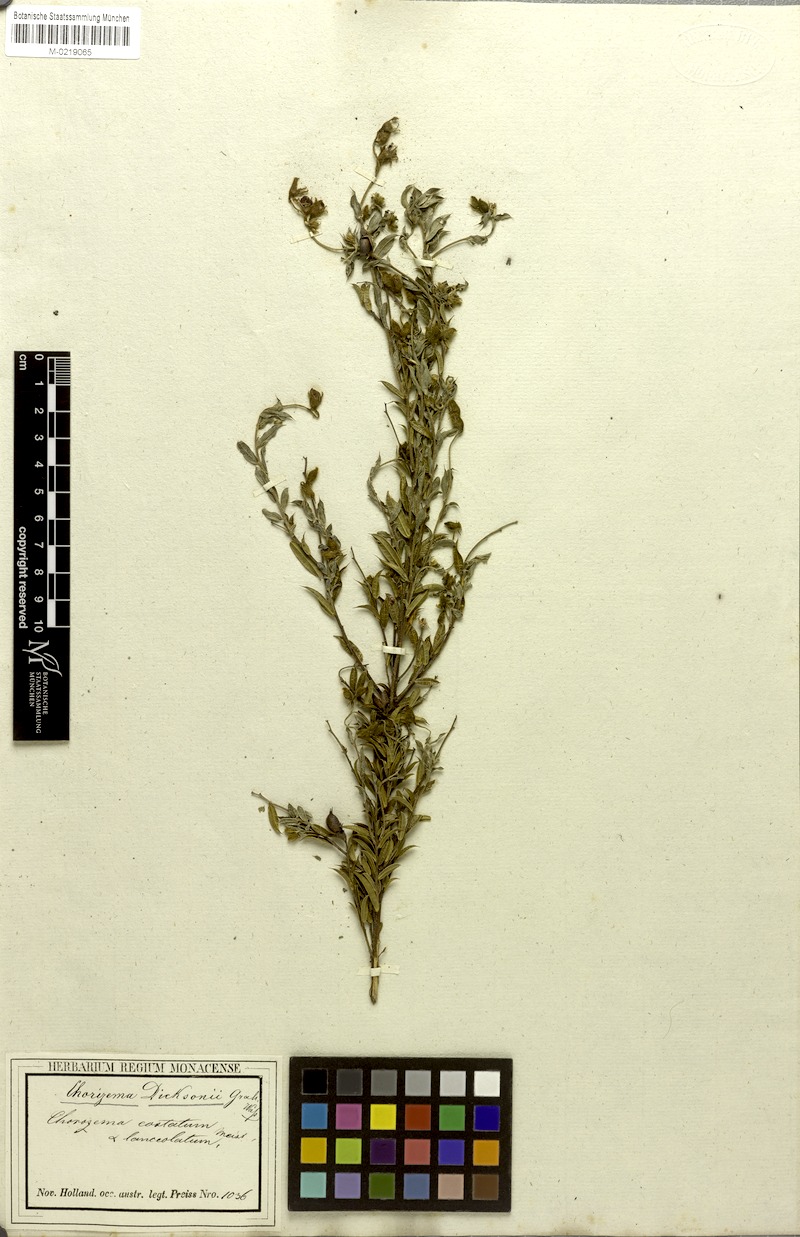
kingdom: Plantae
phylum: Tracheophyta
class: Magnoliopsida
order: Fabales
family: Fabaceae
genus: Chorizema
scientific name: Chorizema dicksonii
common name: Yellow-eyed flame-pea
